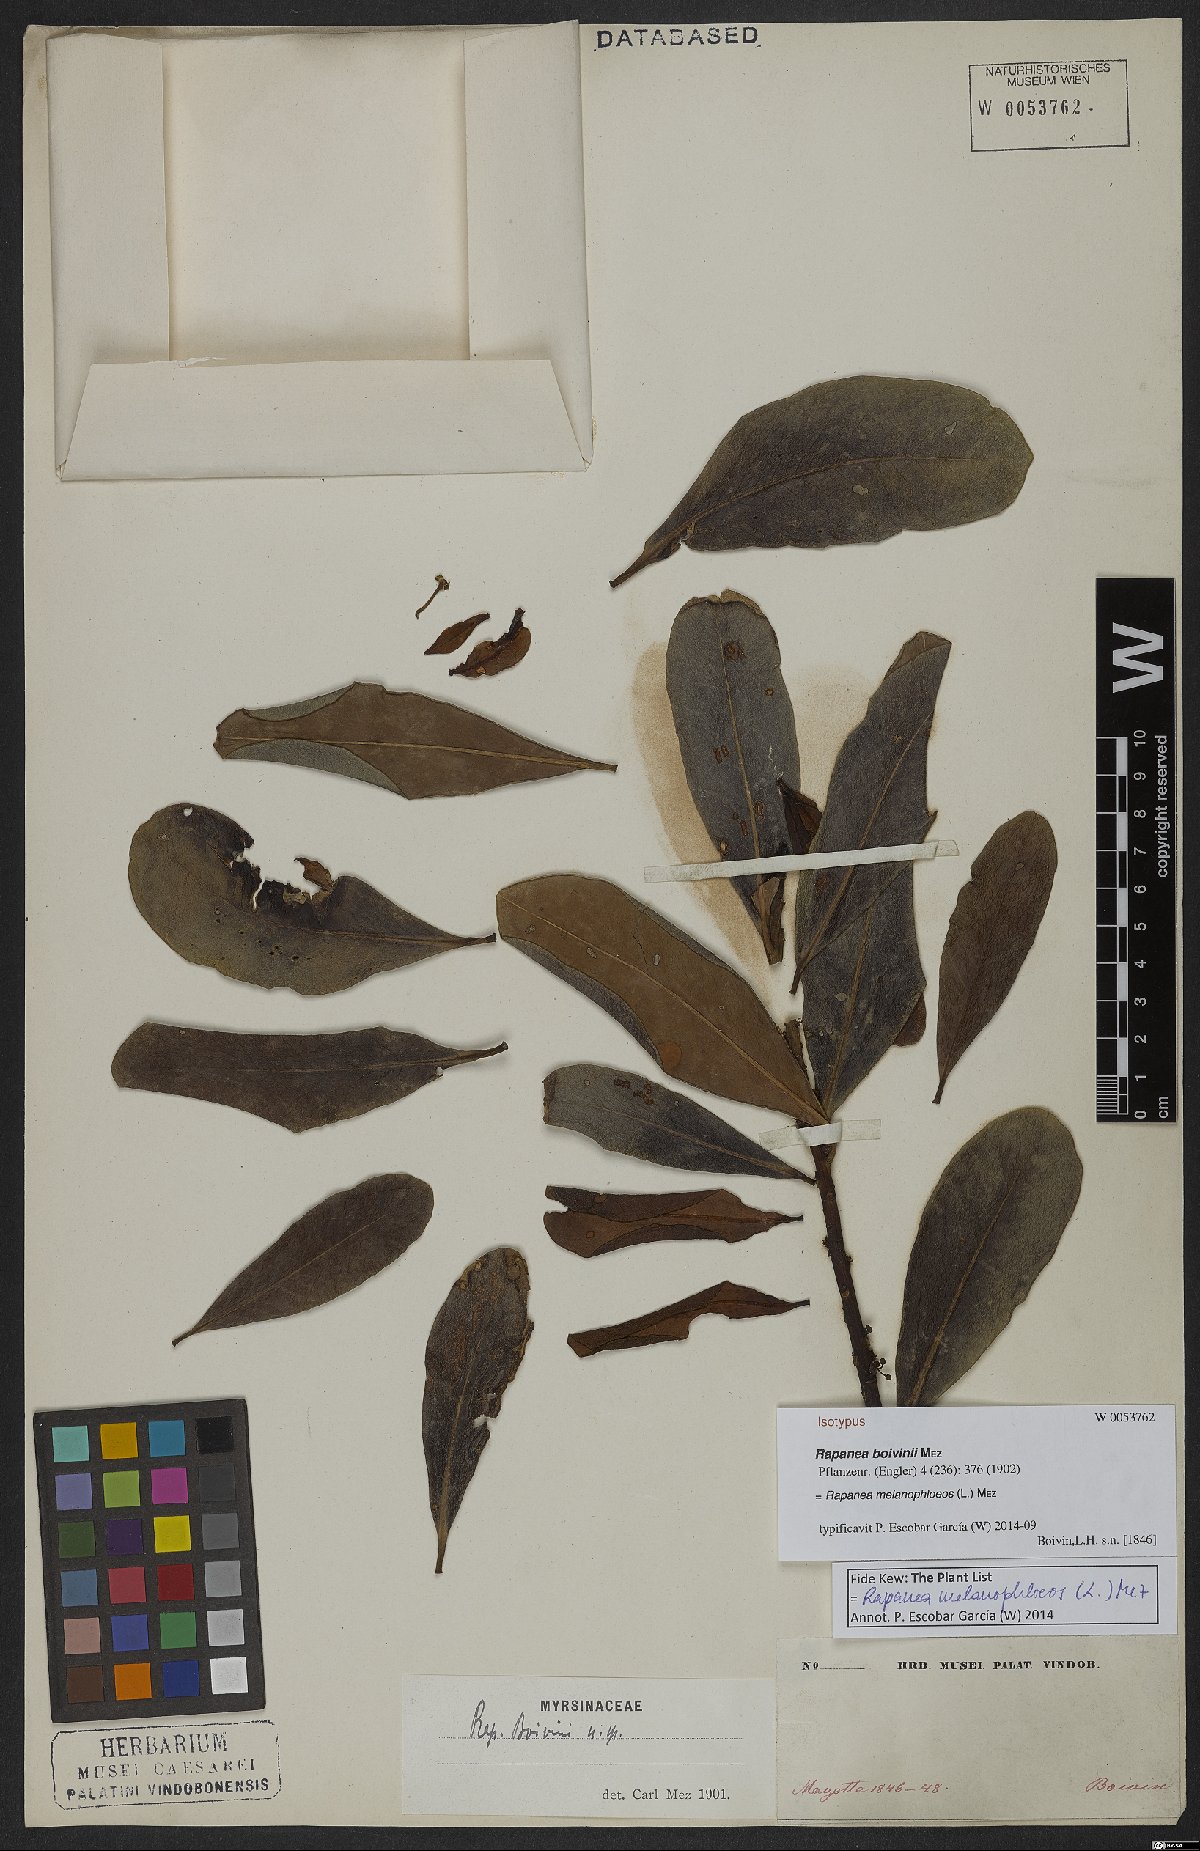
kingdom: Plantae
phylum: Tracheophyta
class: Magnoliopsida
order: Ericales
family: Primulaceae
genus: Myrsine
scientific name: Myrsine melanophloeos
